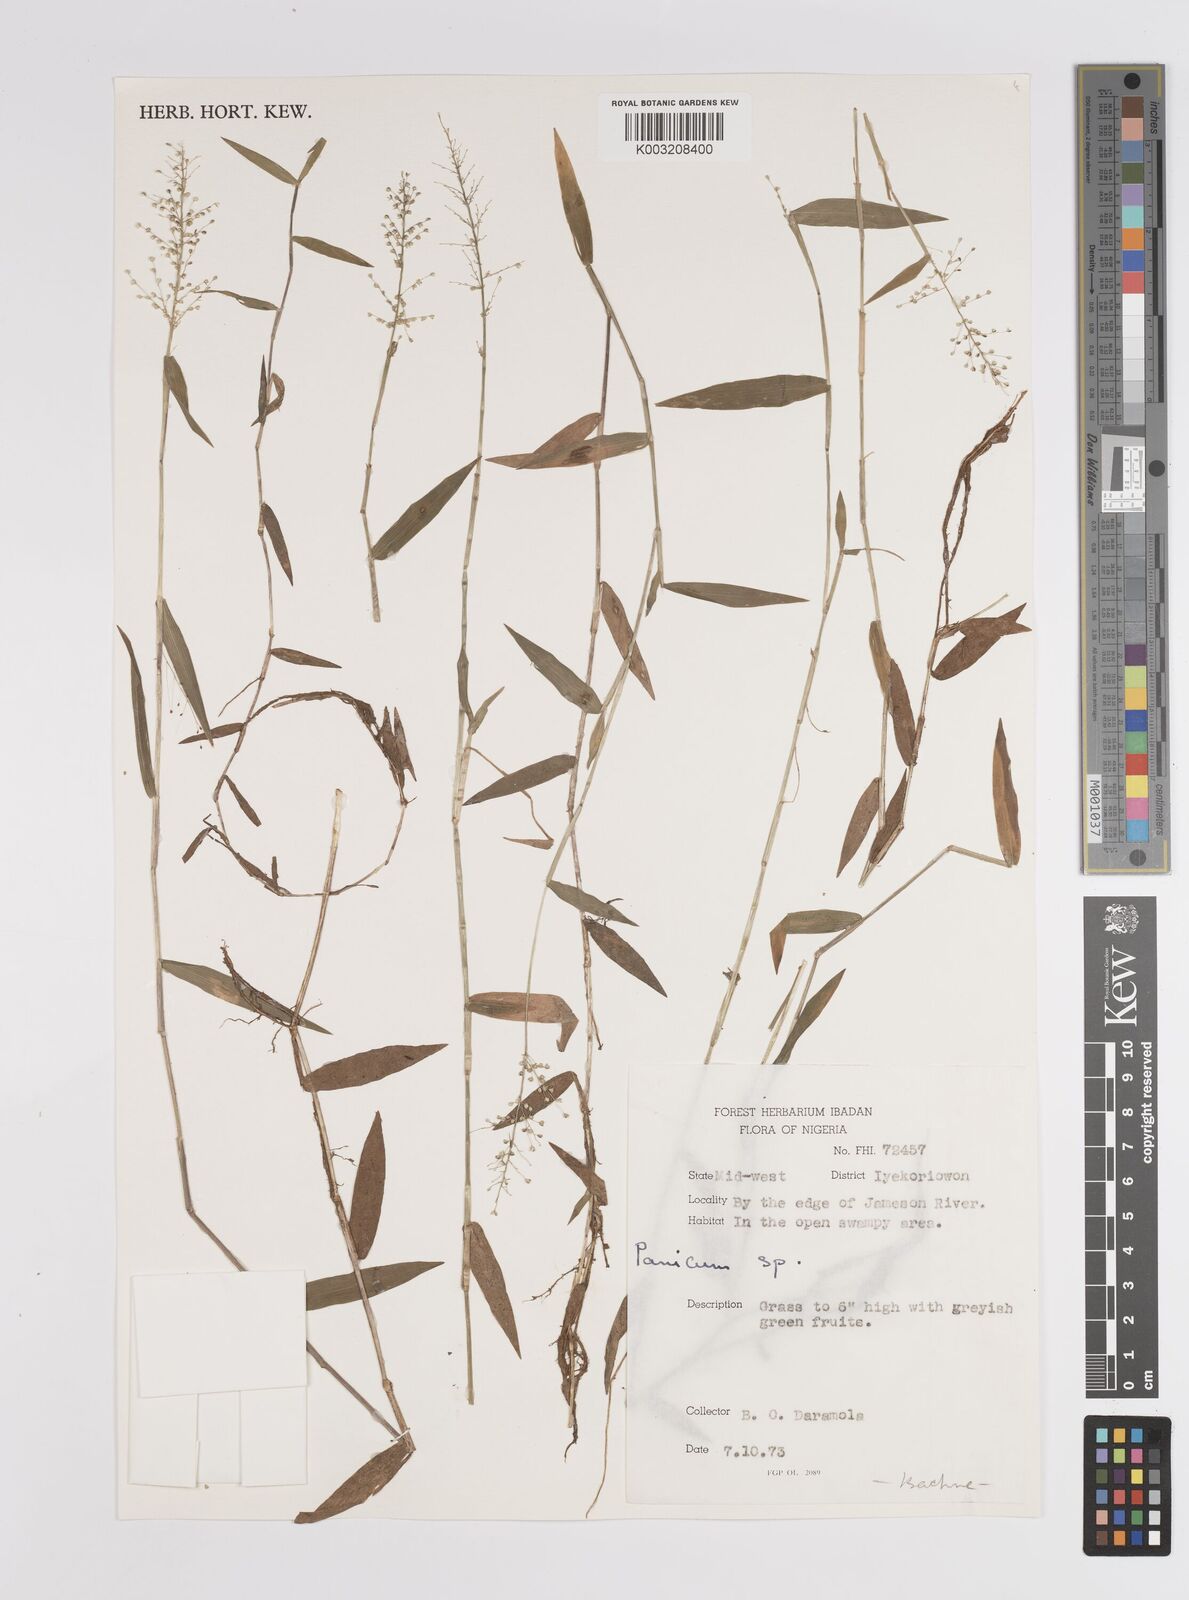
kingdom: Plantae
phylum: Tracheophyta
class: Liliopsida
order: Poales
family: Poaceae
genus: Panicum
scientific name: Panicum
